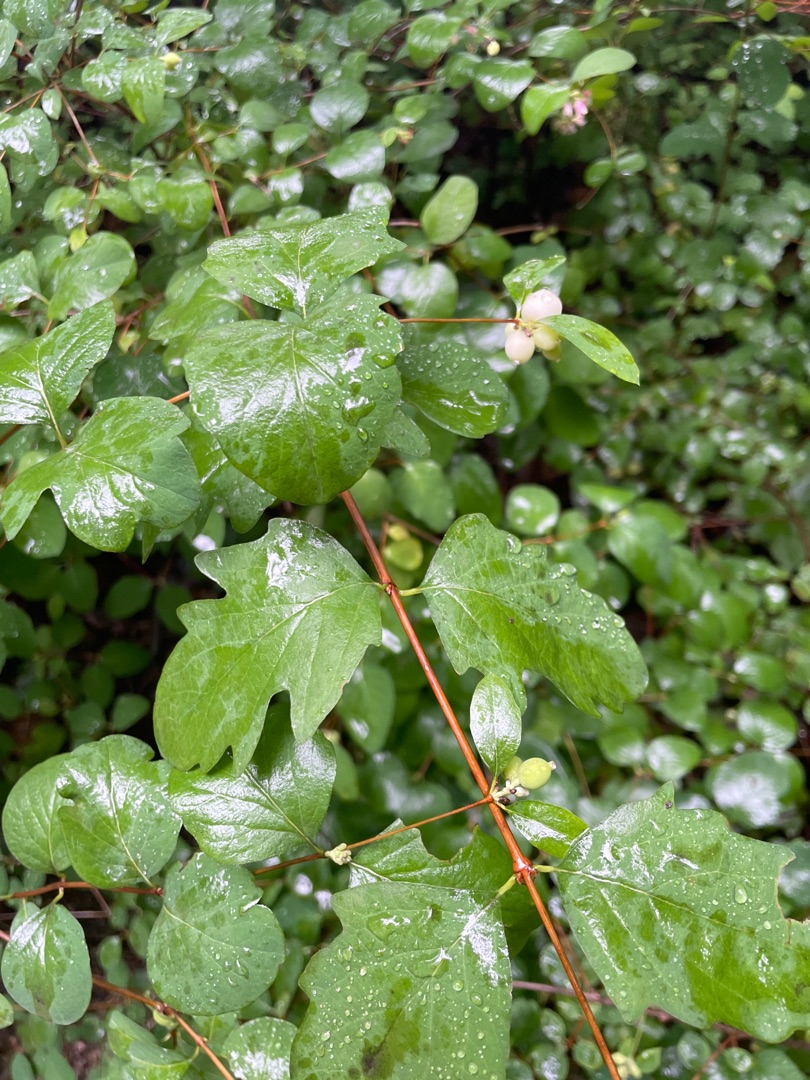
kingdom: Plantae
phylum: Tracheophyta
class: Magnoliopsida
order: Dipsacales
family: Caprifoliaceae
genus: Symphoricarpos
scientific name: Symphoricarpos albus
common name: Almindelig snebær
